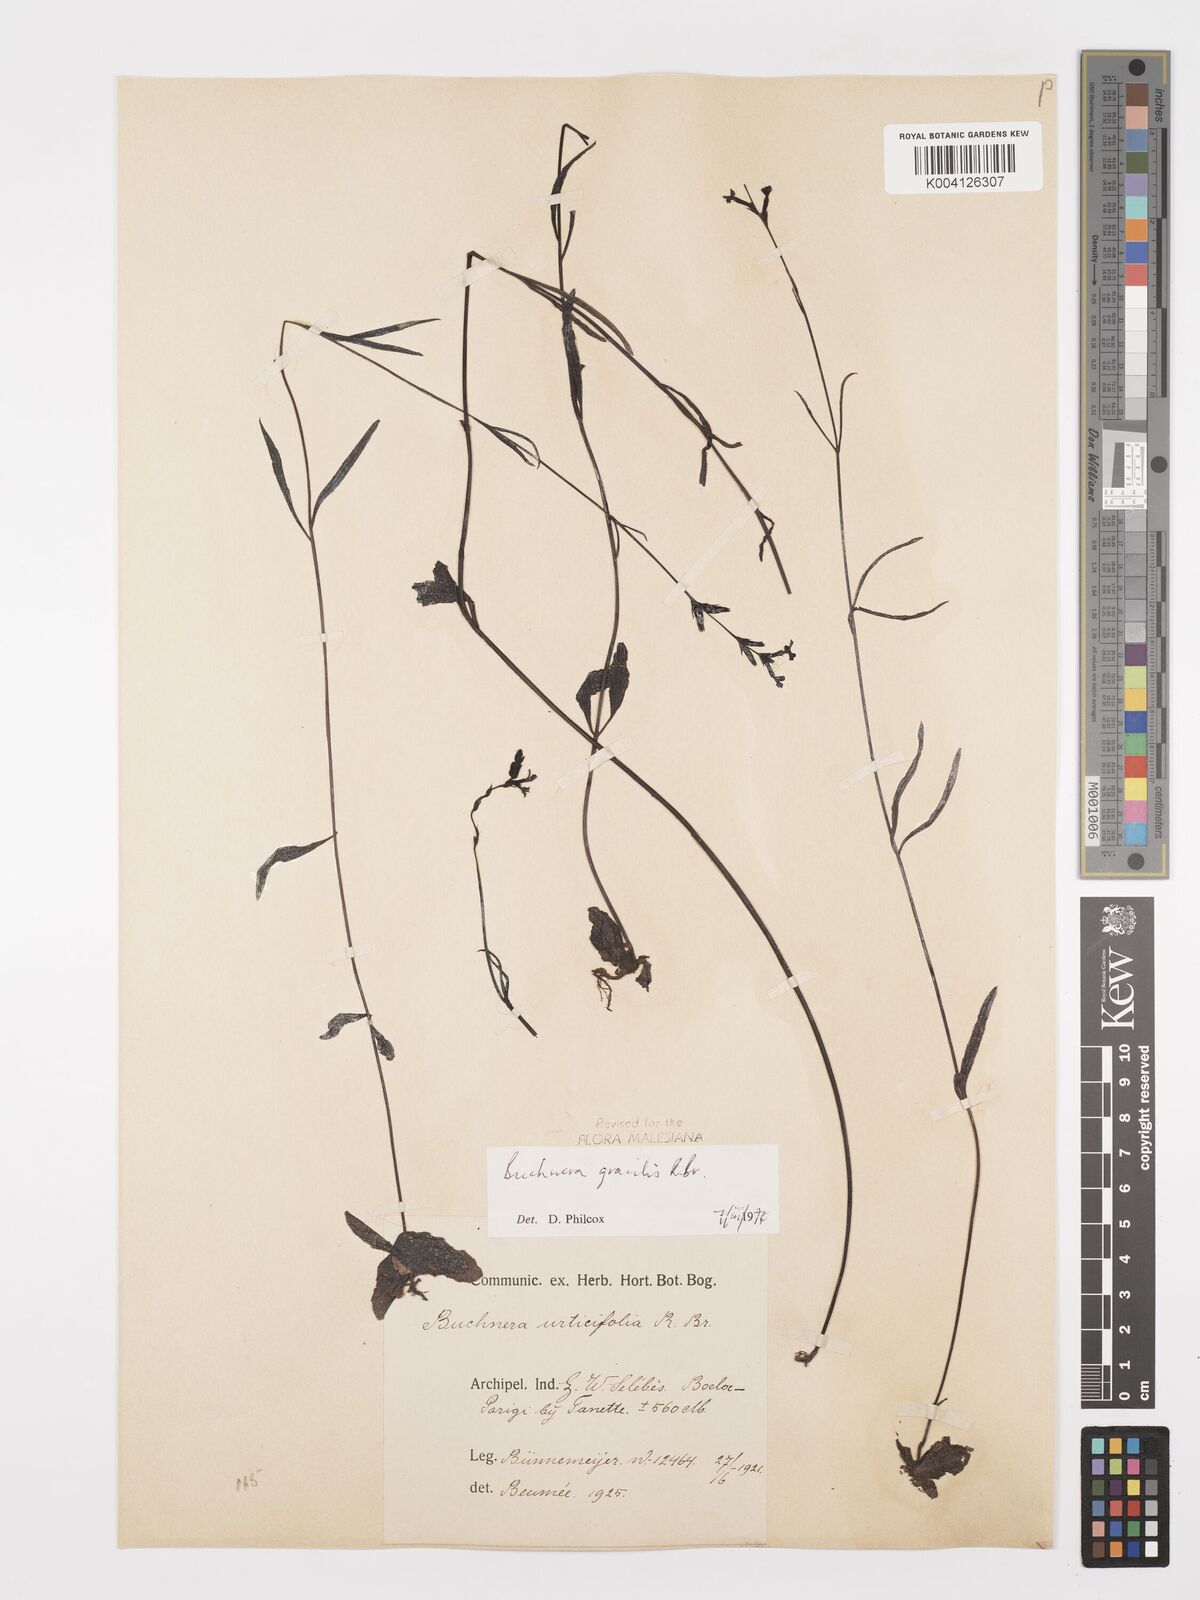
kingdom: Plantae
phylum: Tracheophyta
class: Magnoliopsida
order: Lamiales
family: Orobanchaceae
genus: Buchnera
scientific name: Buchnera gracilis
